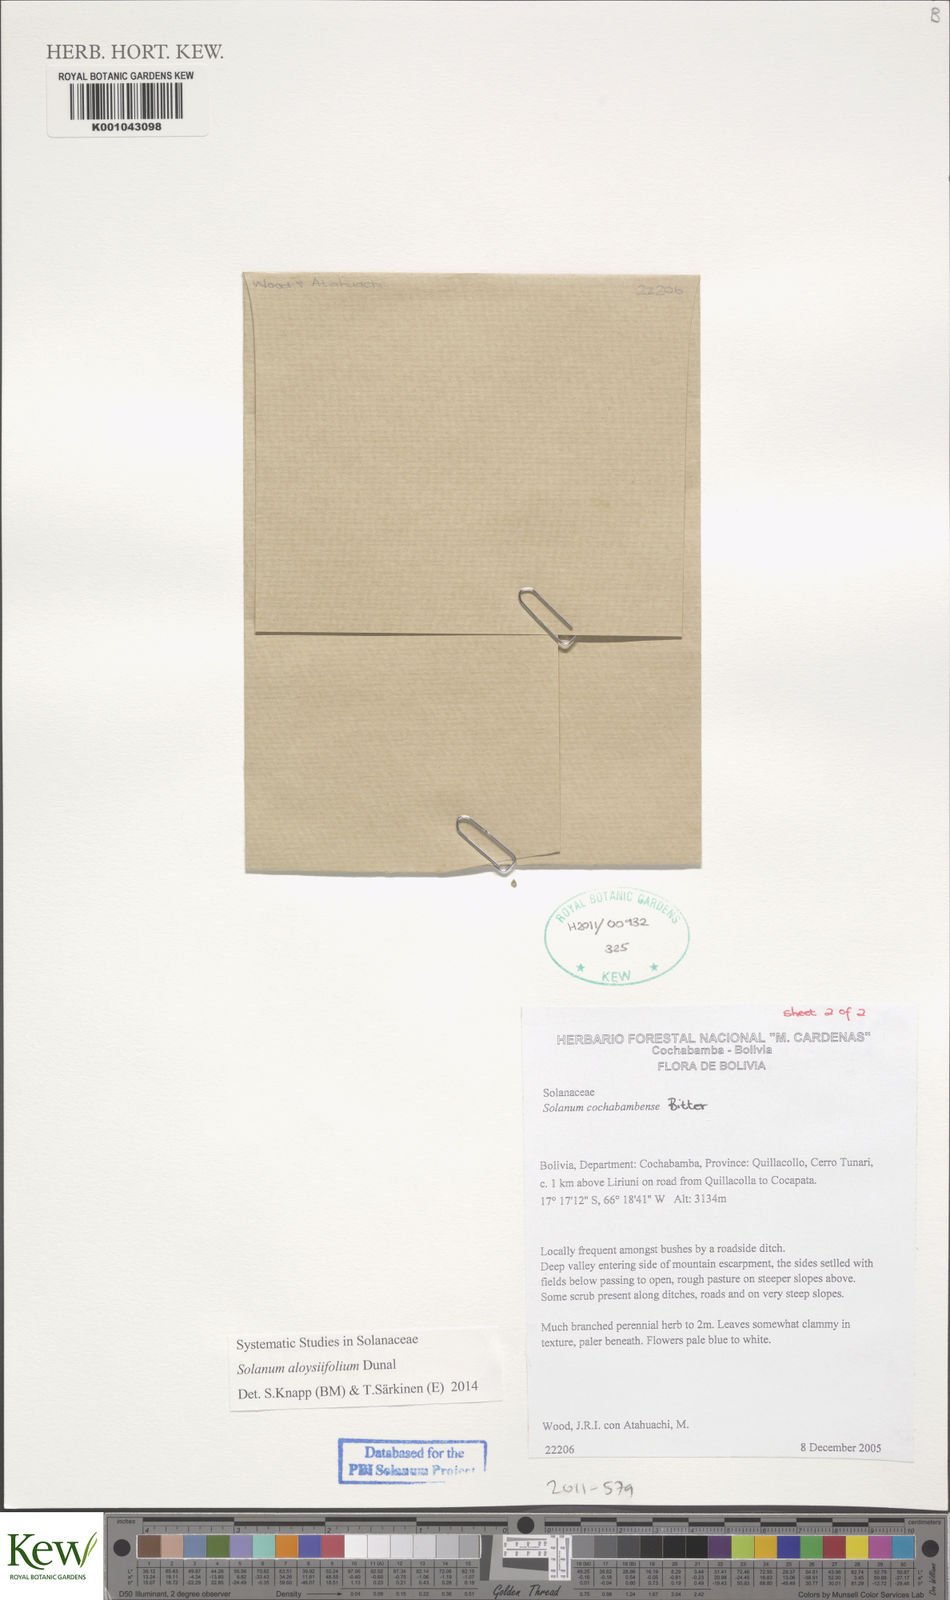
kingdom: Plantae
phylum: Tracheophyta
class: Magnoliopsida
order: Solanales
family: Solanaceae
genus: Solanum
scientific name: Solanum probolospermum
